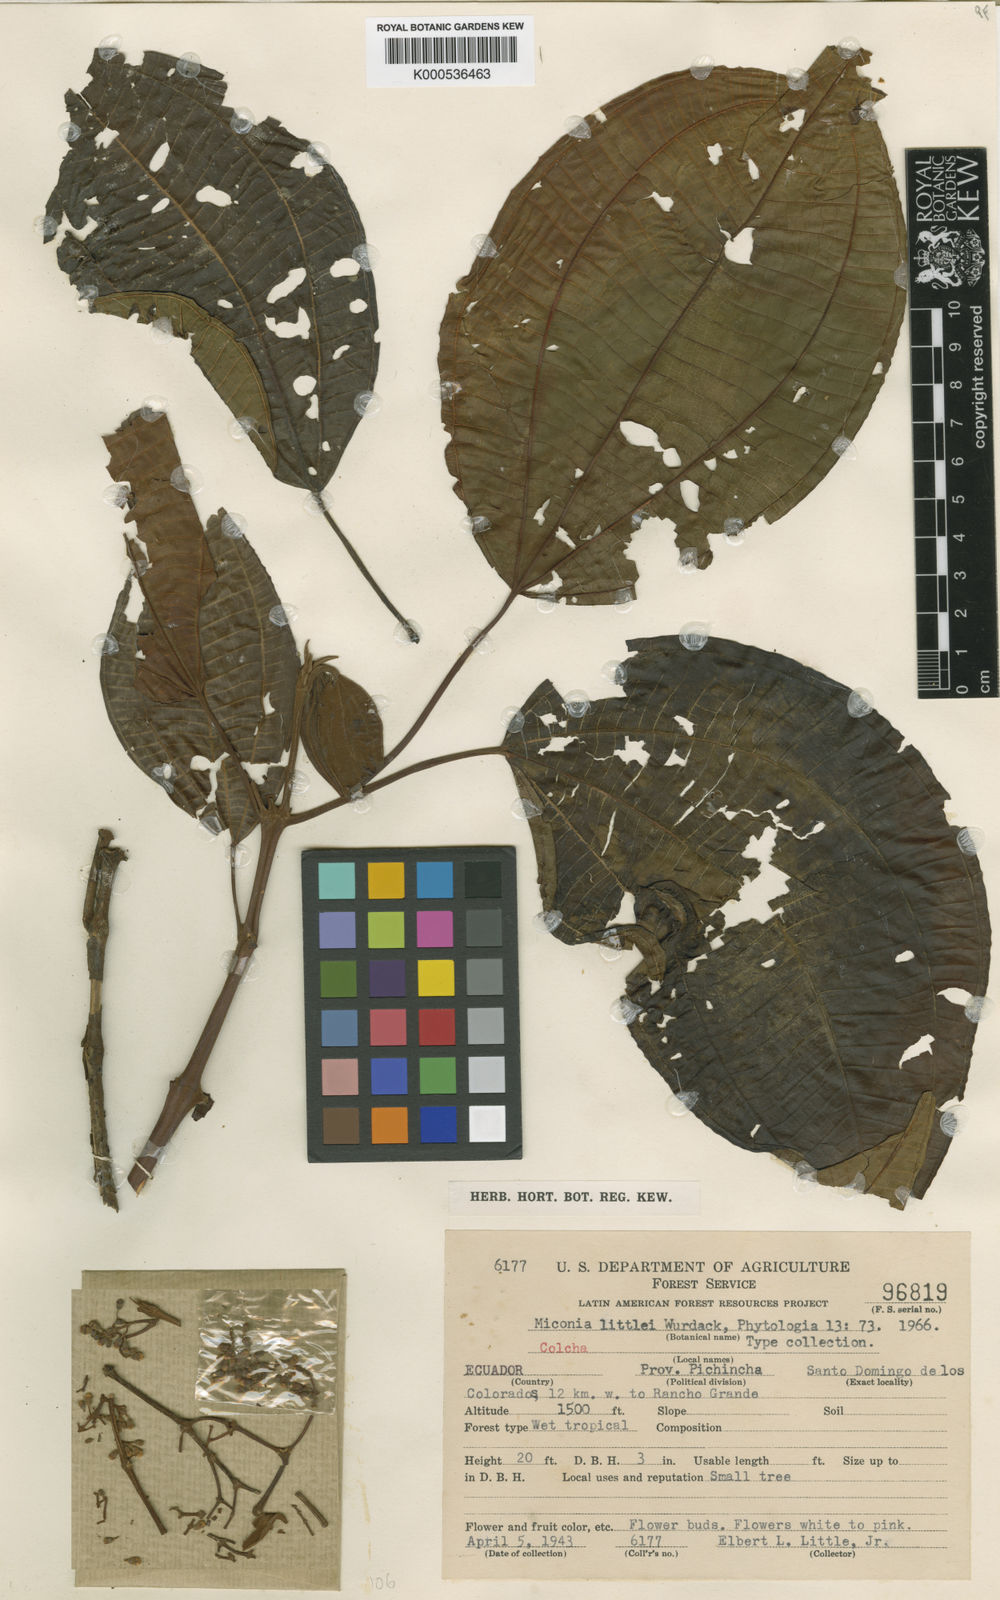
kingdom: Plantae
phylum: Tracheophyta
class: Magnoliopsida
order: Myrtales
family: Melastomataceae
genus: Miconia
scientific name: Miconia littlei
